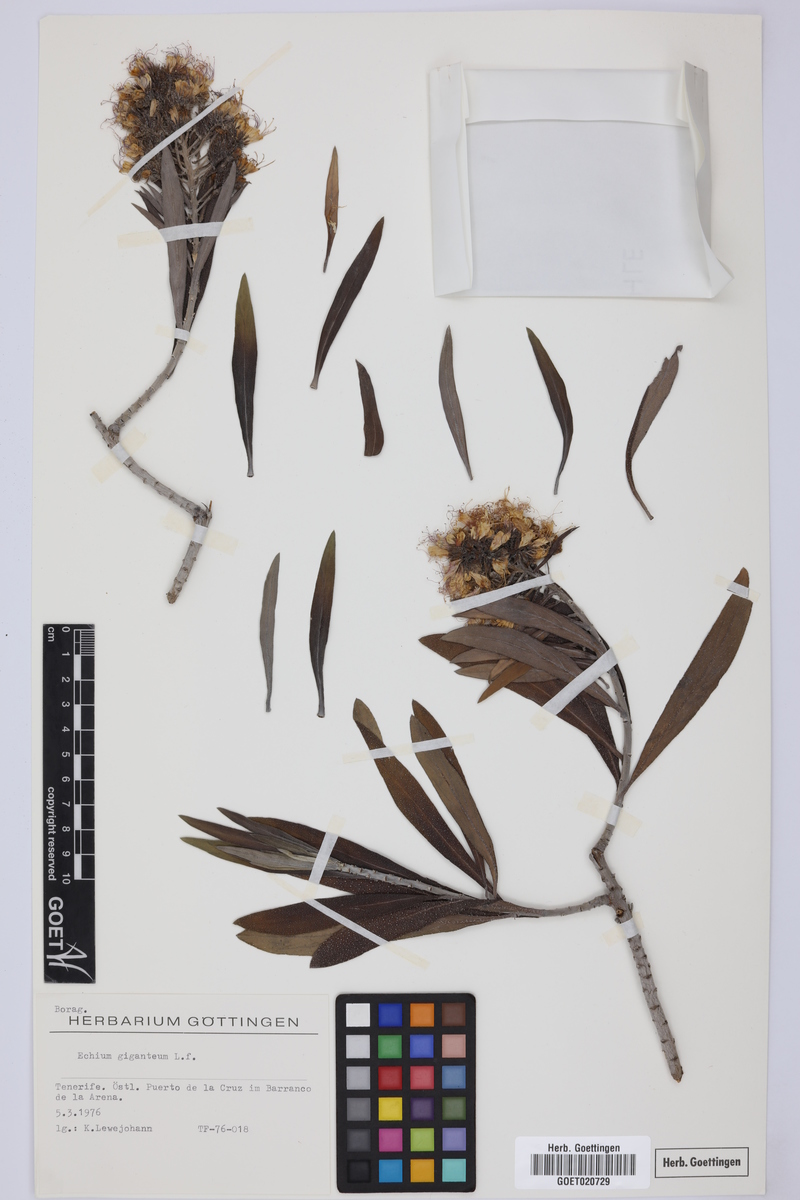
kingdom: Plantae
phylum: Tracheophyta
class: Magnoliopsida
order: Boraginales
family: Boraginaceae
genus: Echium
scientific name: Echium giganteum
